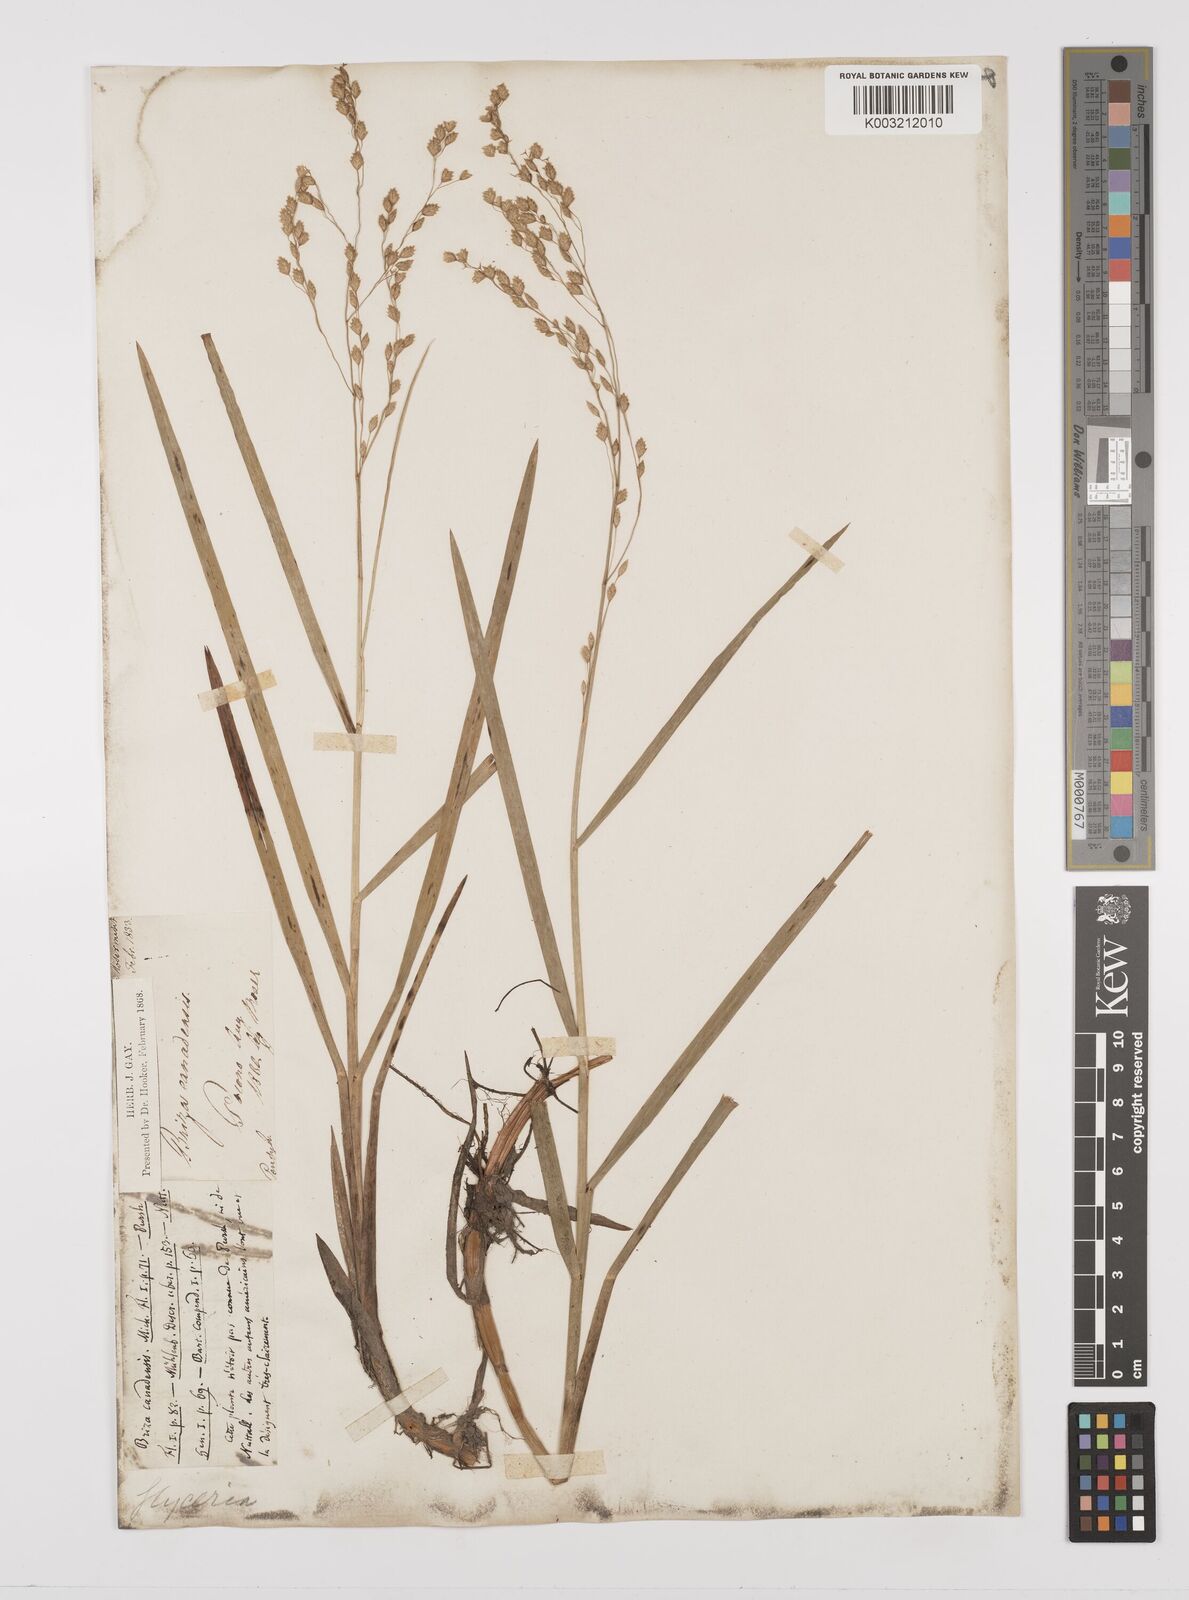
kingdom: Plantae
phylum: Tracheophyta
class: Liliopsida
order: Poales
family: Poaceae
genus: Glyceria
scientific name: Glyceria canadensis
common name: Canada mannagrass
